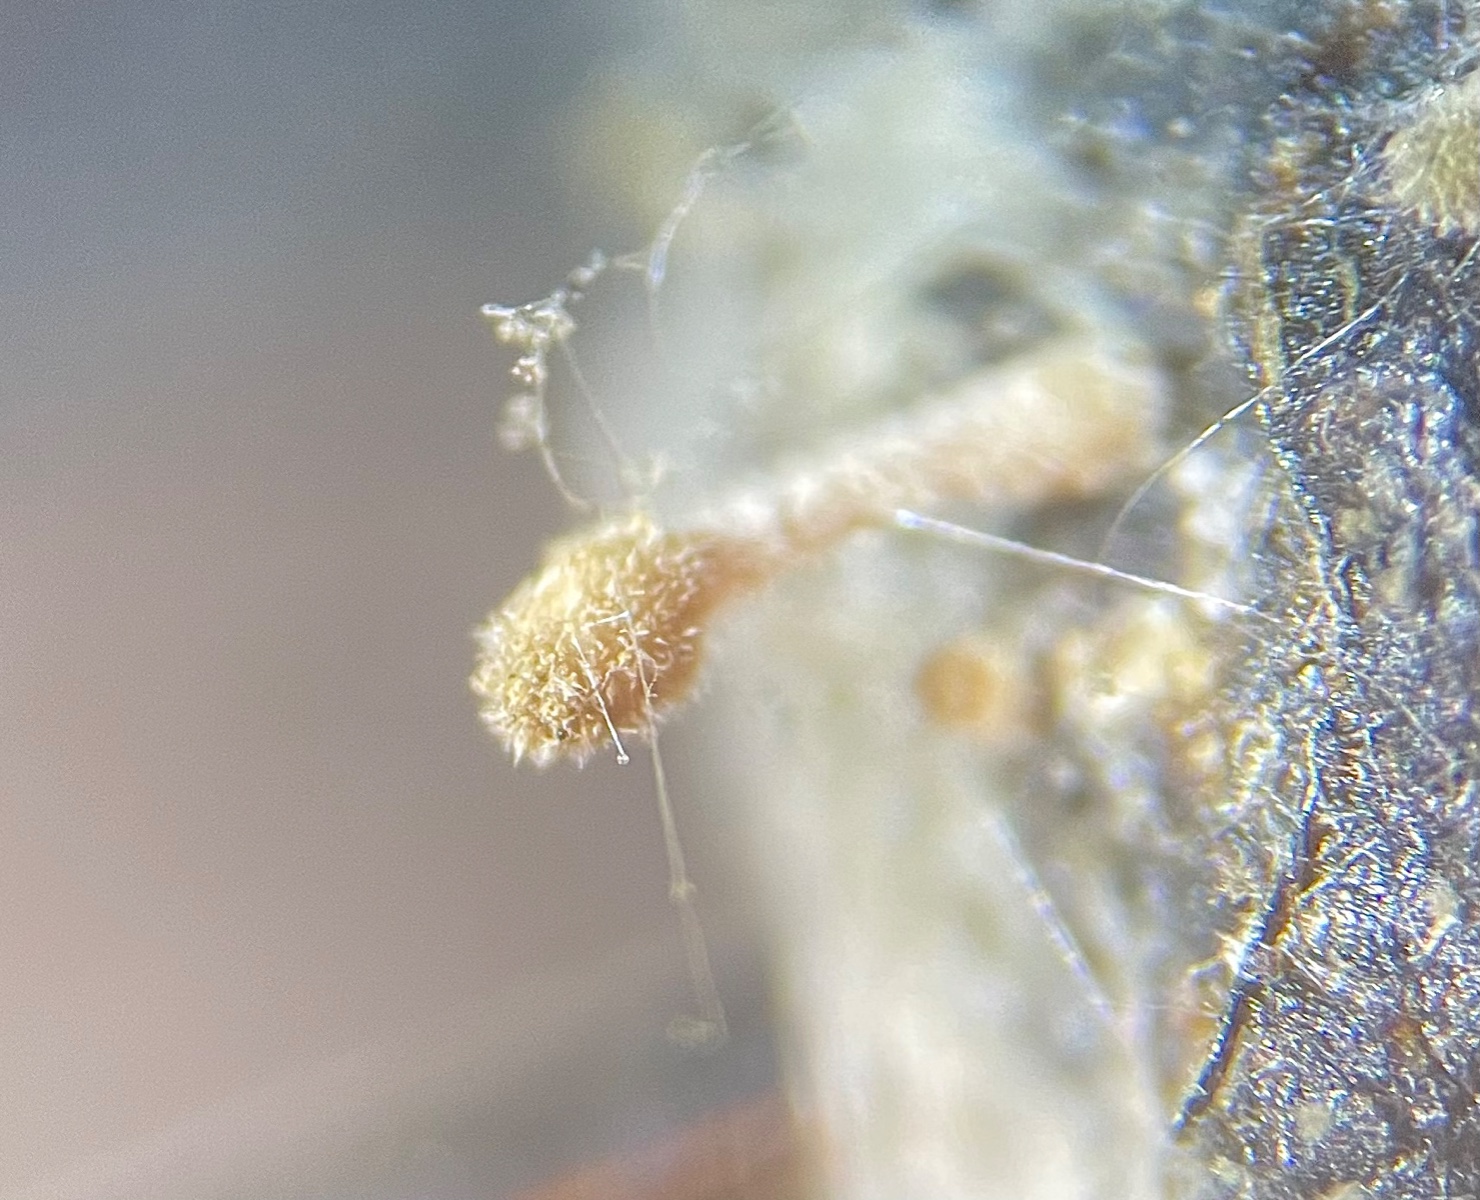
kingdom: Fungi
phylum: Basidiomycota
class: Agaricomycetes
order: Agaricales
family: Psathyrellaceae
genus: Coprinellus
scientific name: Coprinellus
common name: blækhat
